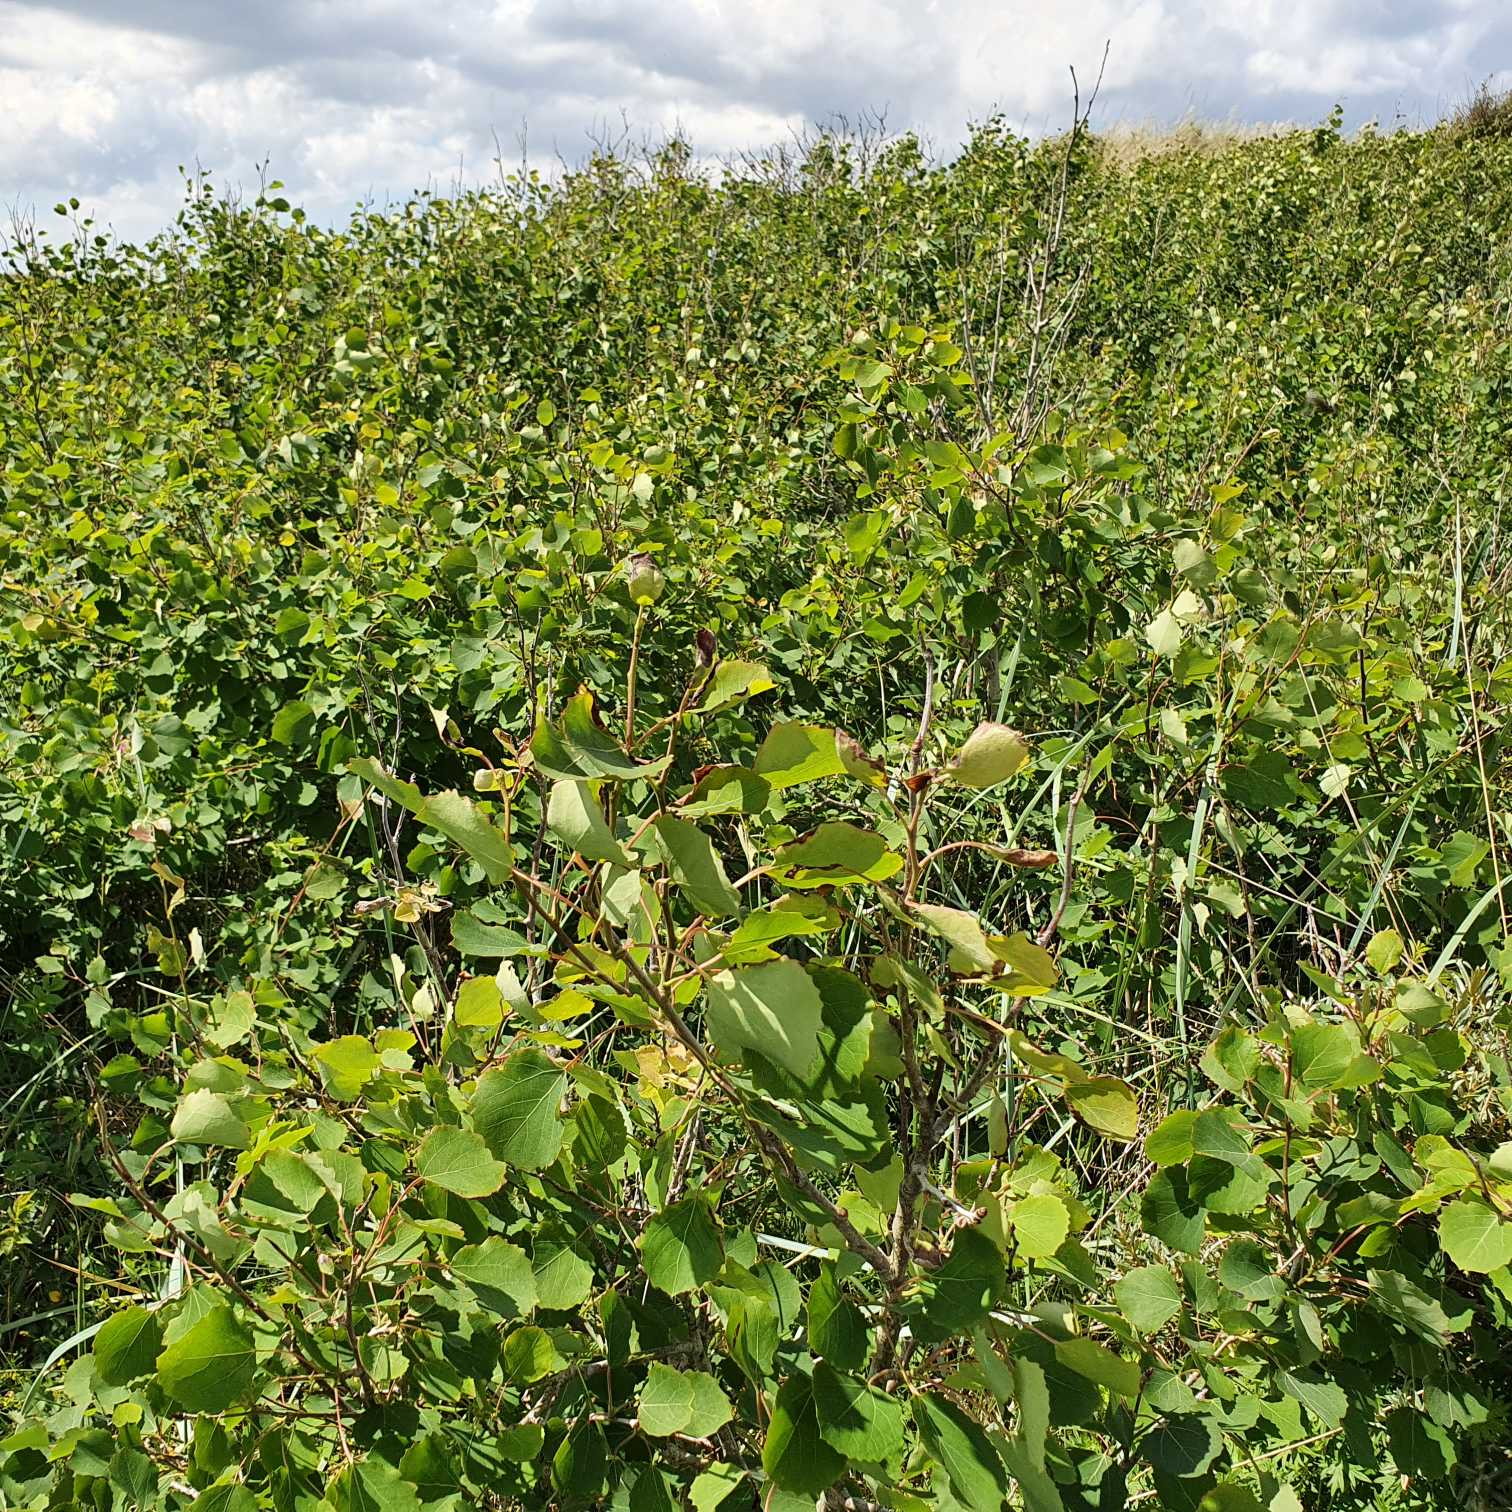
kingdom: Plantae
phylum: Tracheophyta
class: Magnoliopsida
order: Malpighiales
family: Salicaceae
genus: Populus
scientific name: Populus tremula
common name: Bævreasp
